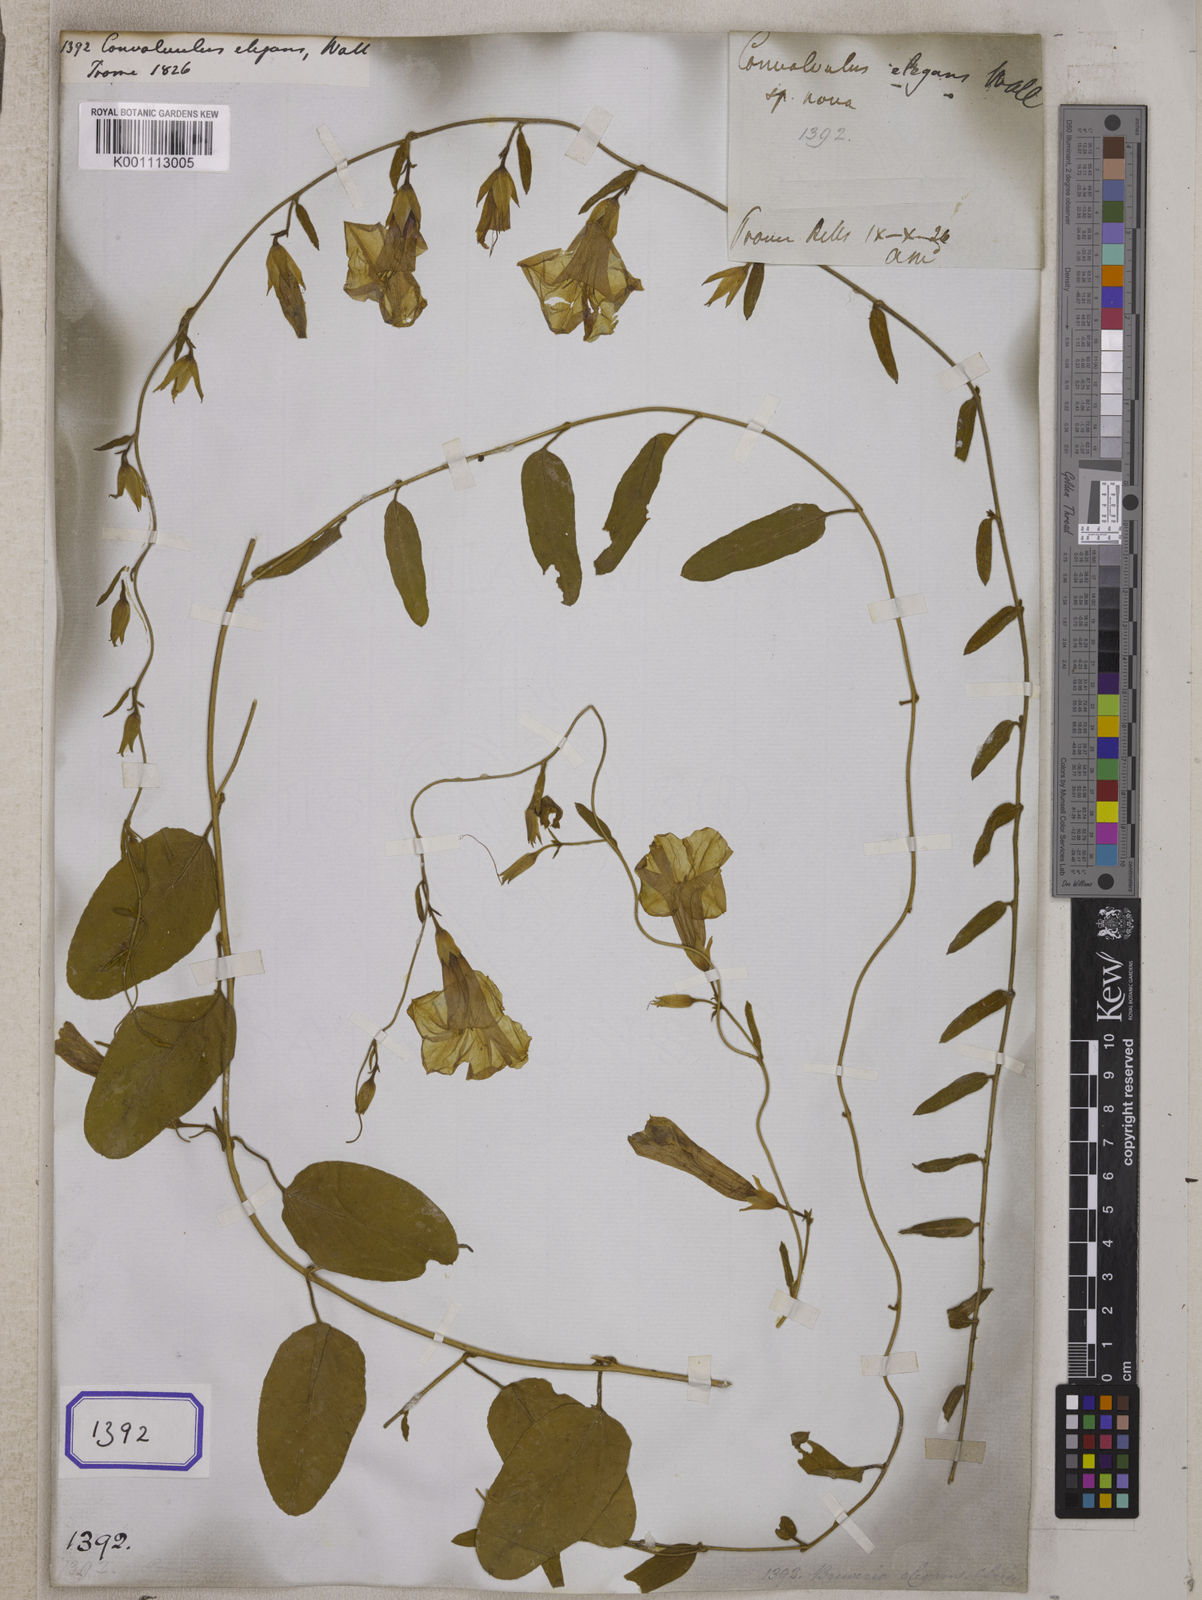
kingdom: Plantae
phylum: Tracheophyta
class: Magnoliopsida
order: Solanales
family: Convolvulaceae
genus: Bonamia
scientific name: Bonamia elegans
